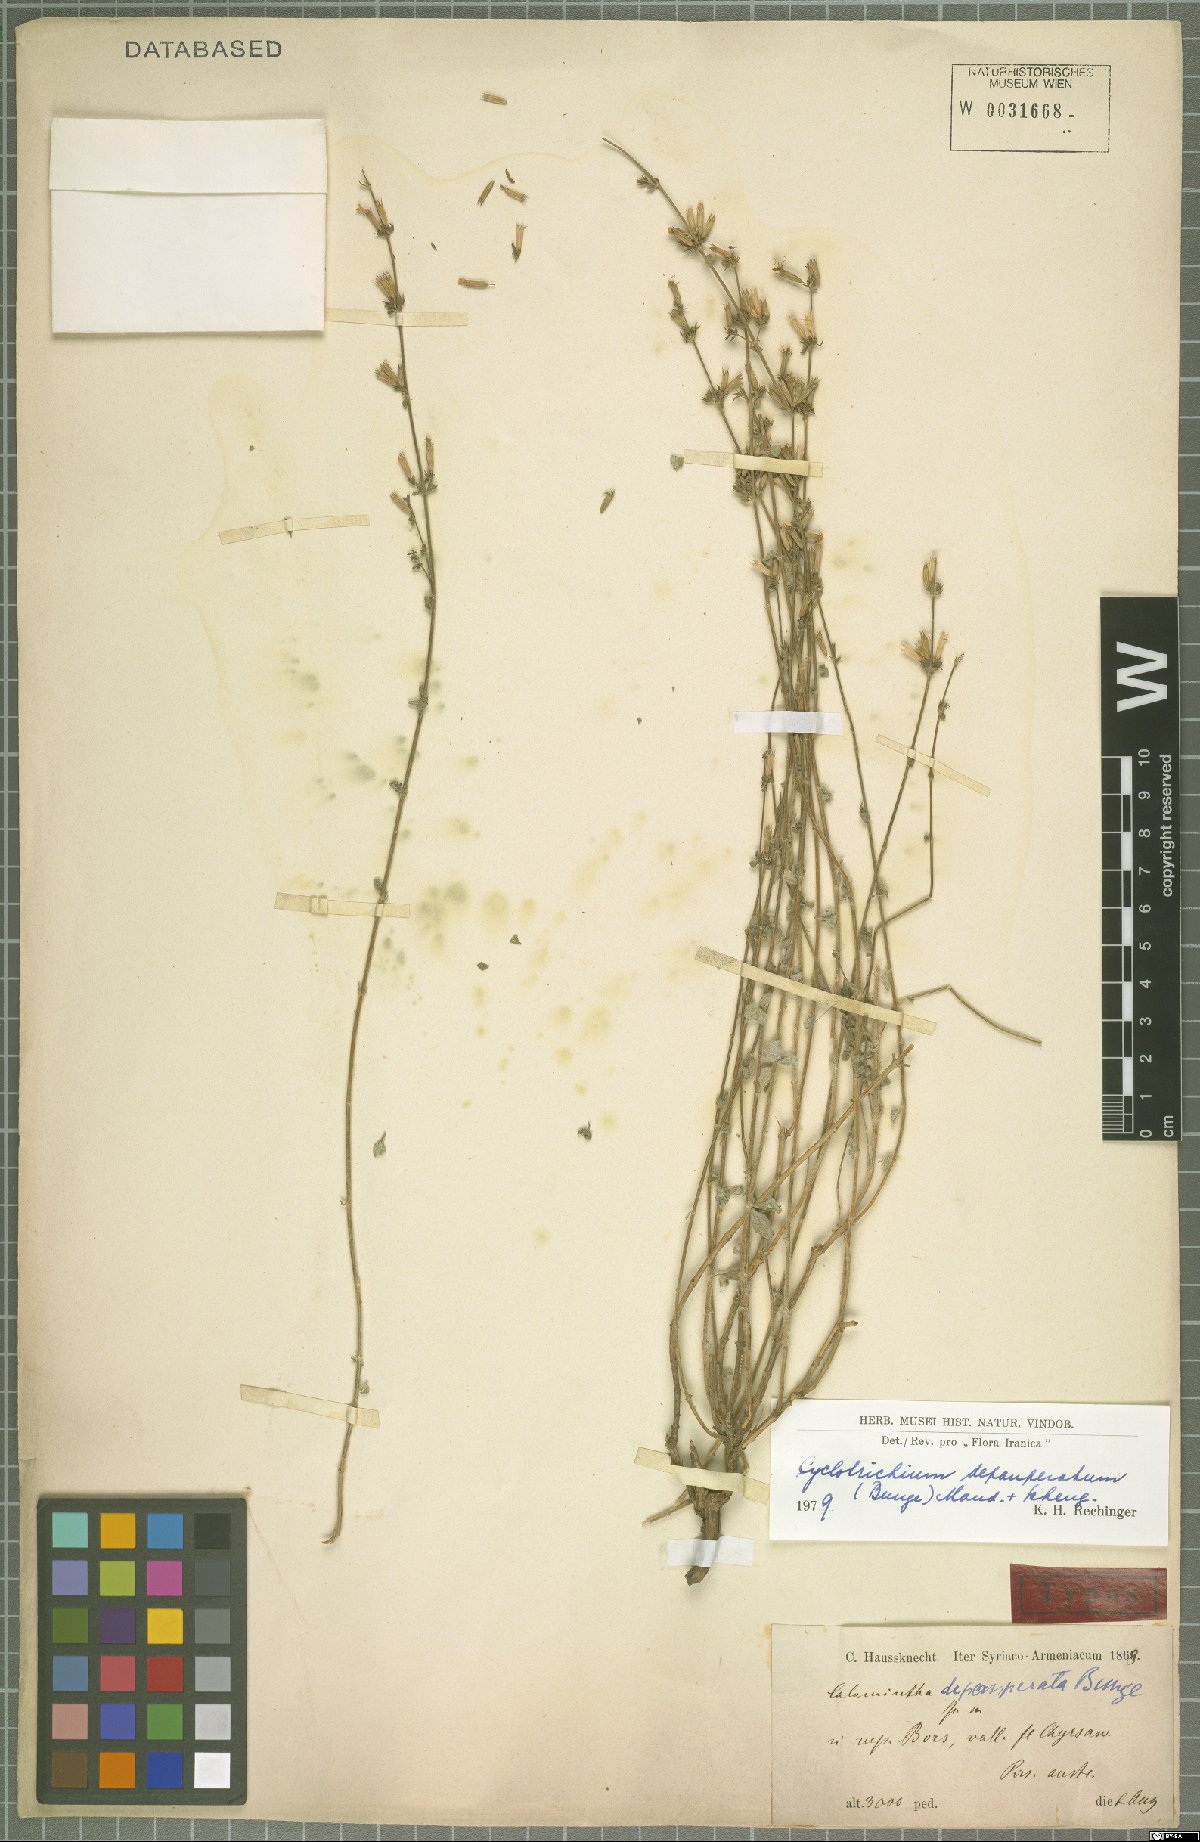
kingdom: Plantae
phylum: Tracheophyta
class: Magnoliopsida
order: Lamiales
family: Lamiaceae
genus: Cyclotrichium
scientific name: Cyclotrichium depauperatum
